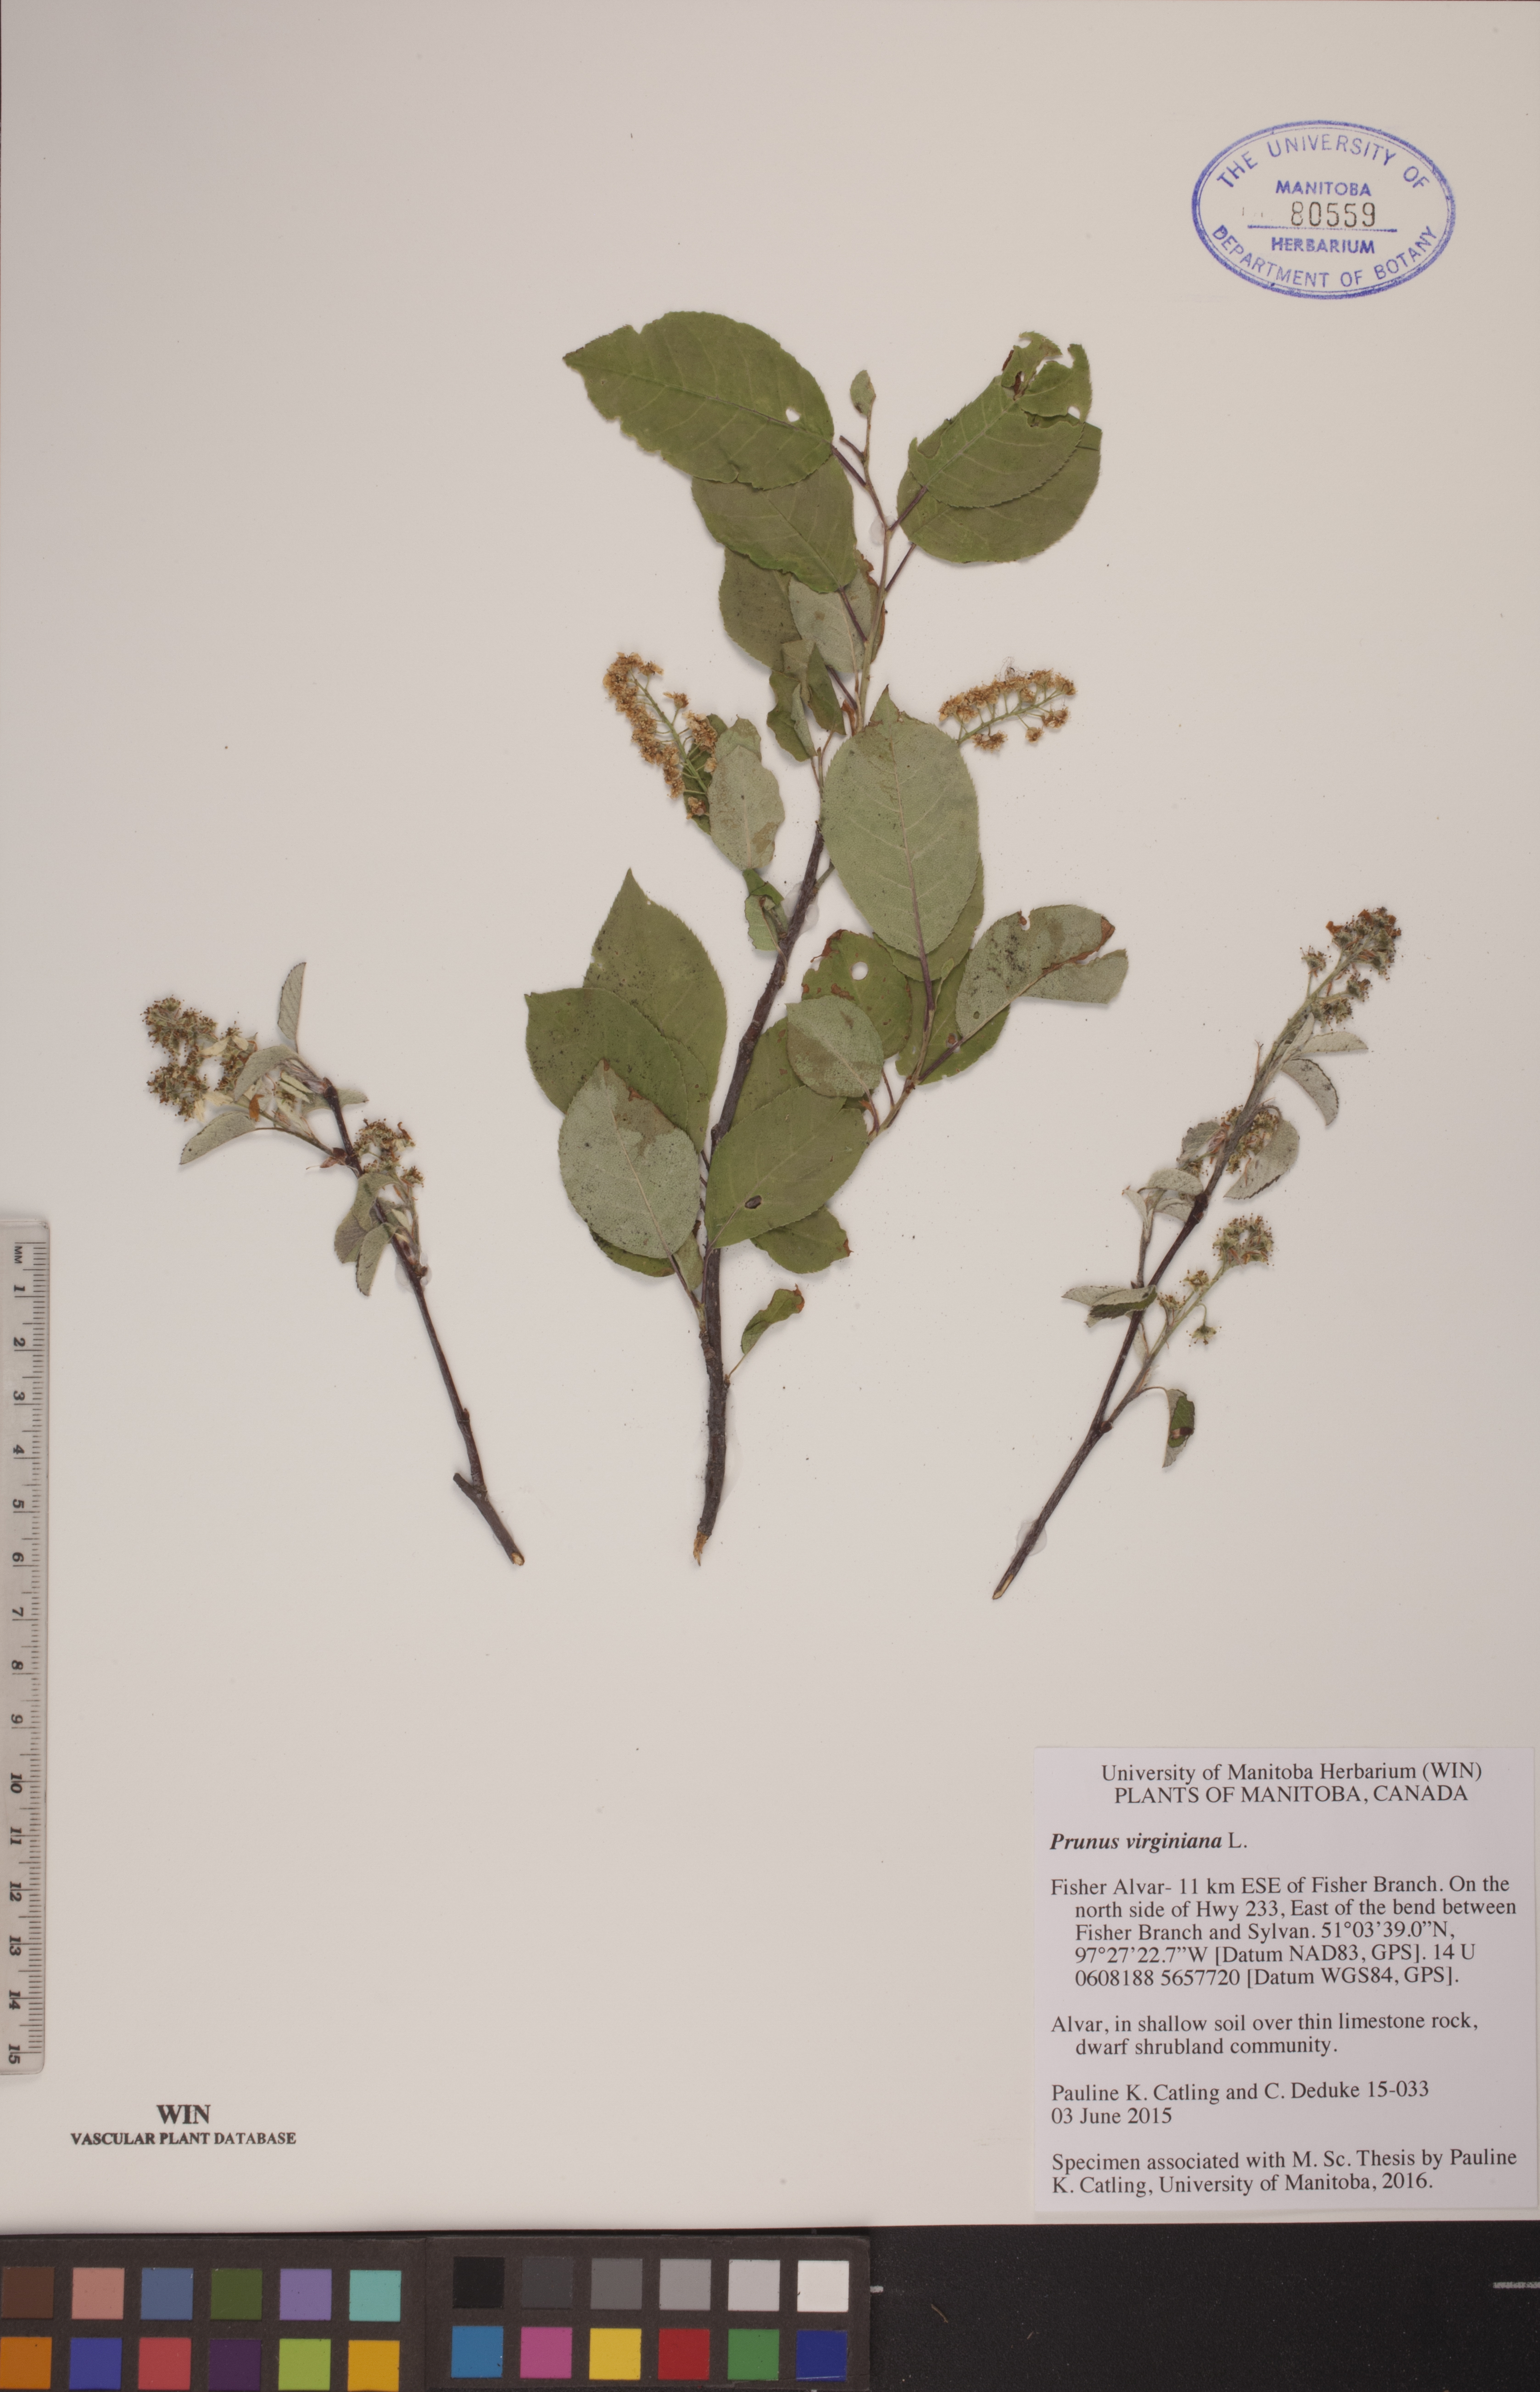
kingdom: Plantae
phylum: Tracheophyta
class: Magnoliopsida
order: Rosales
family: Rosaceae
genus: Prunus
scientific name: Prunus virginiana
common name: Chokecherry
